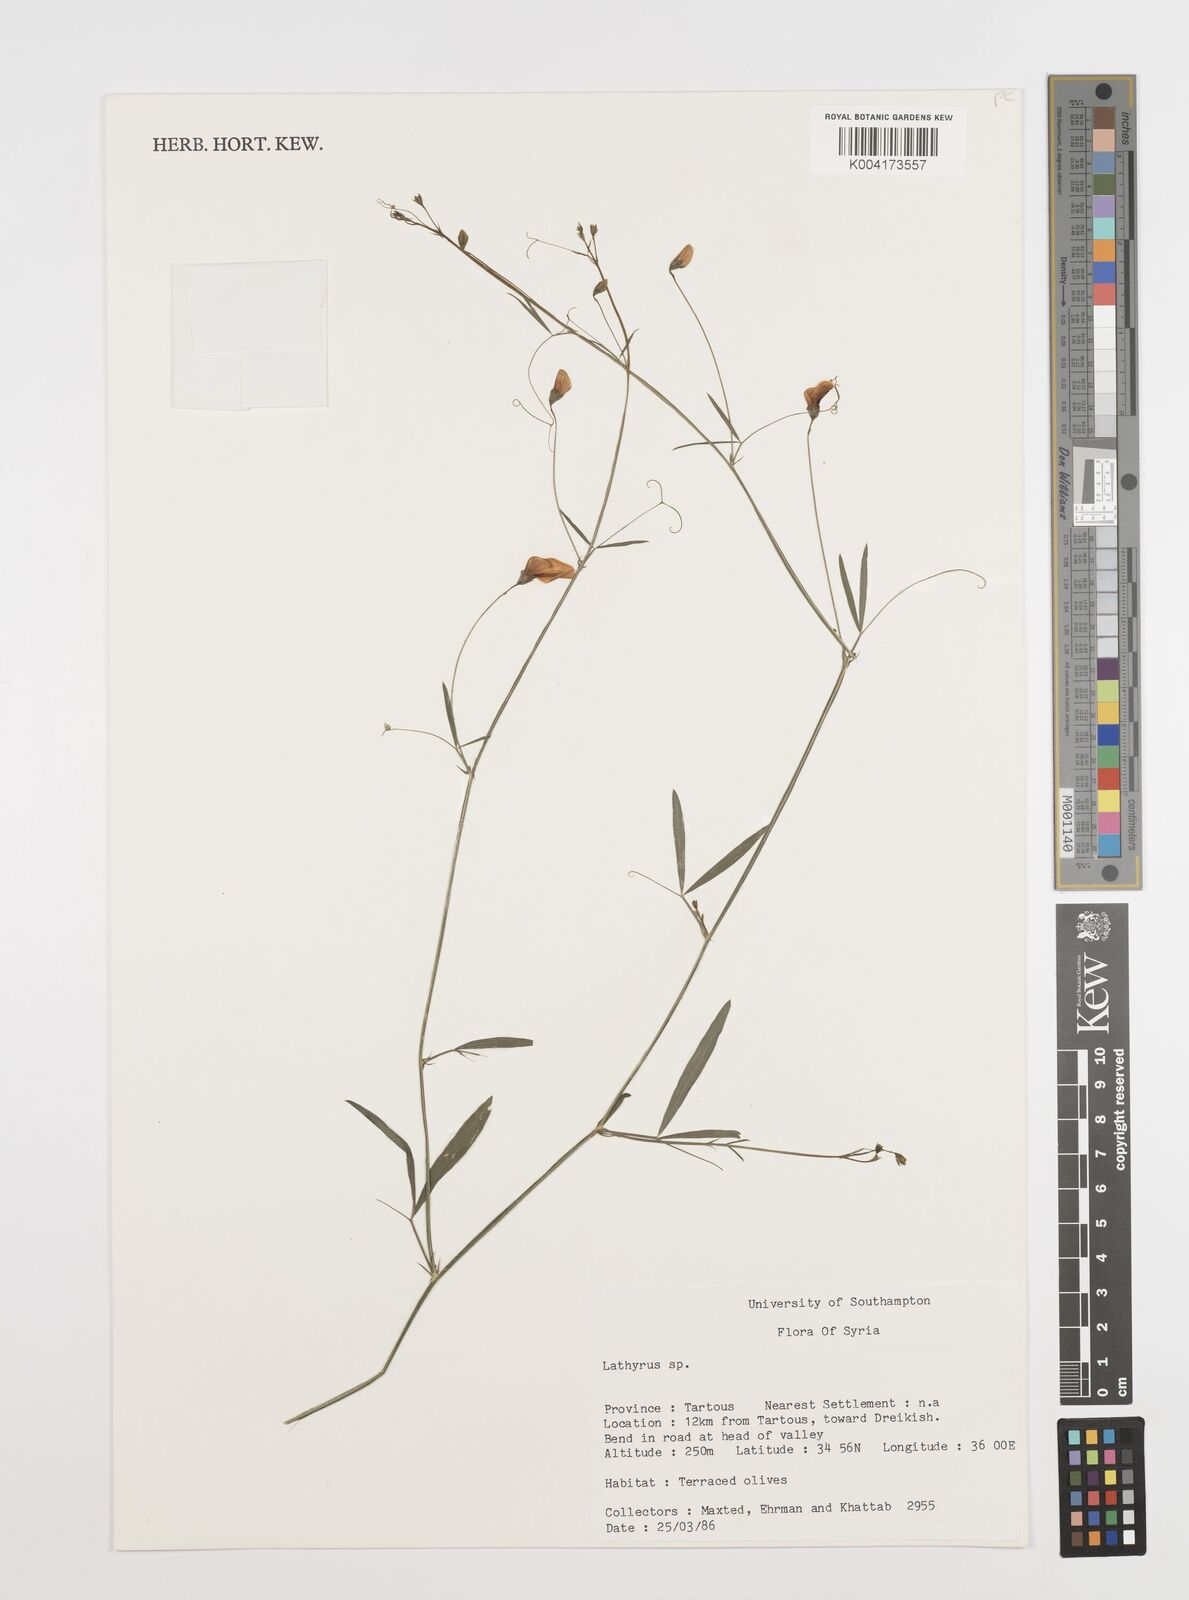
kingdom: Plantae
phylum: Tracheophyta
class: Magnoliopsida
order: Fabales
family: Fabaceae
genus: Lathyrus
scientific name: Lathyrus
